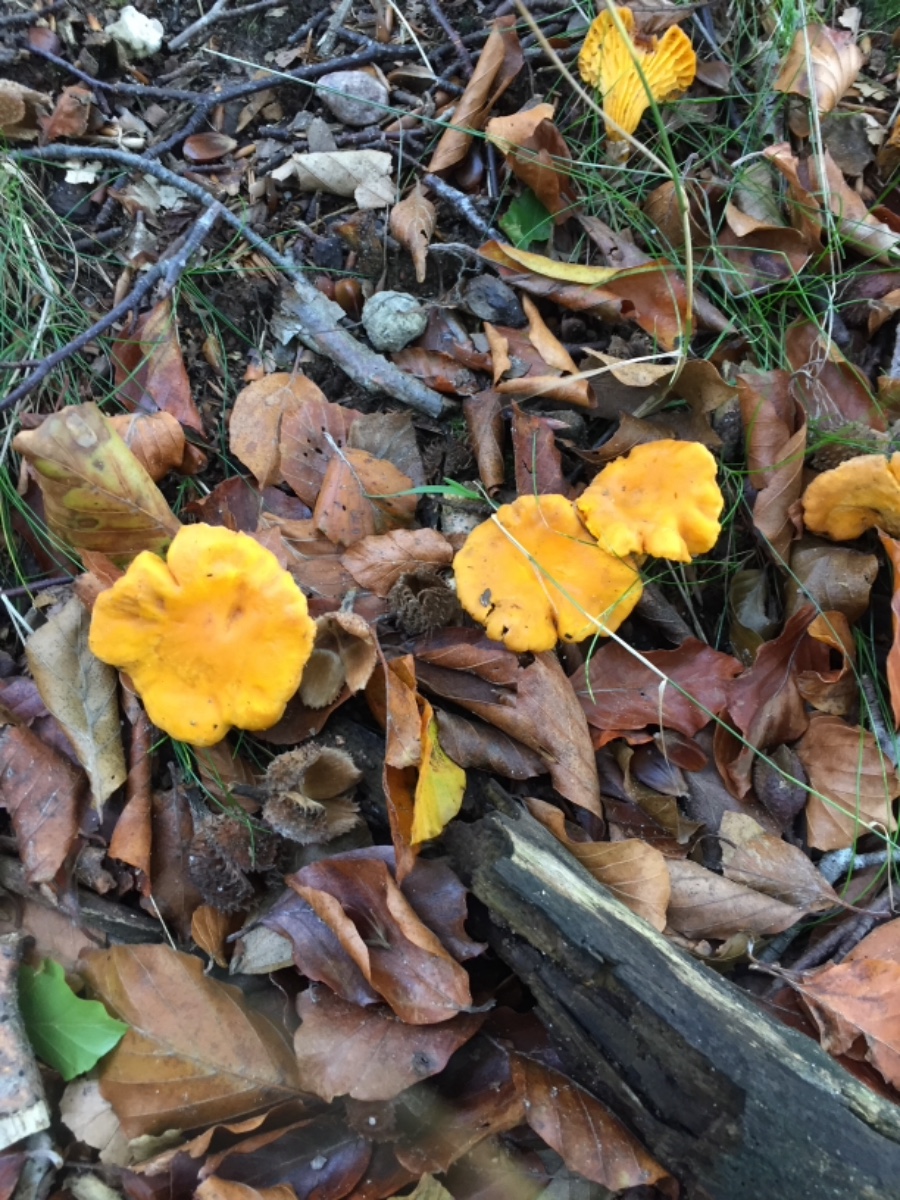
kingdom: Fungi
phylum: Basidiomycota
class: Agaricomycetes
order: Cantharellales
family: Hydnaceae
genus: Cantharellus
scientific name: Cantharellus cibarius
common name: almindelig kantarel
